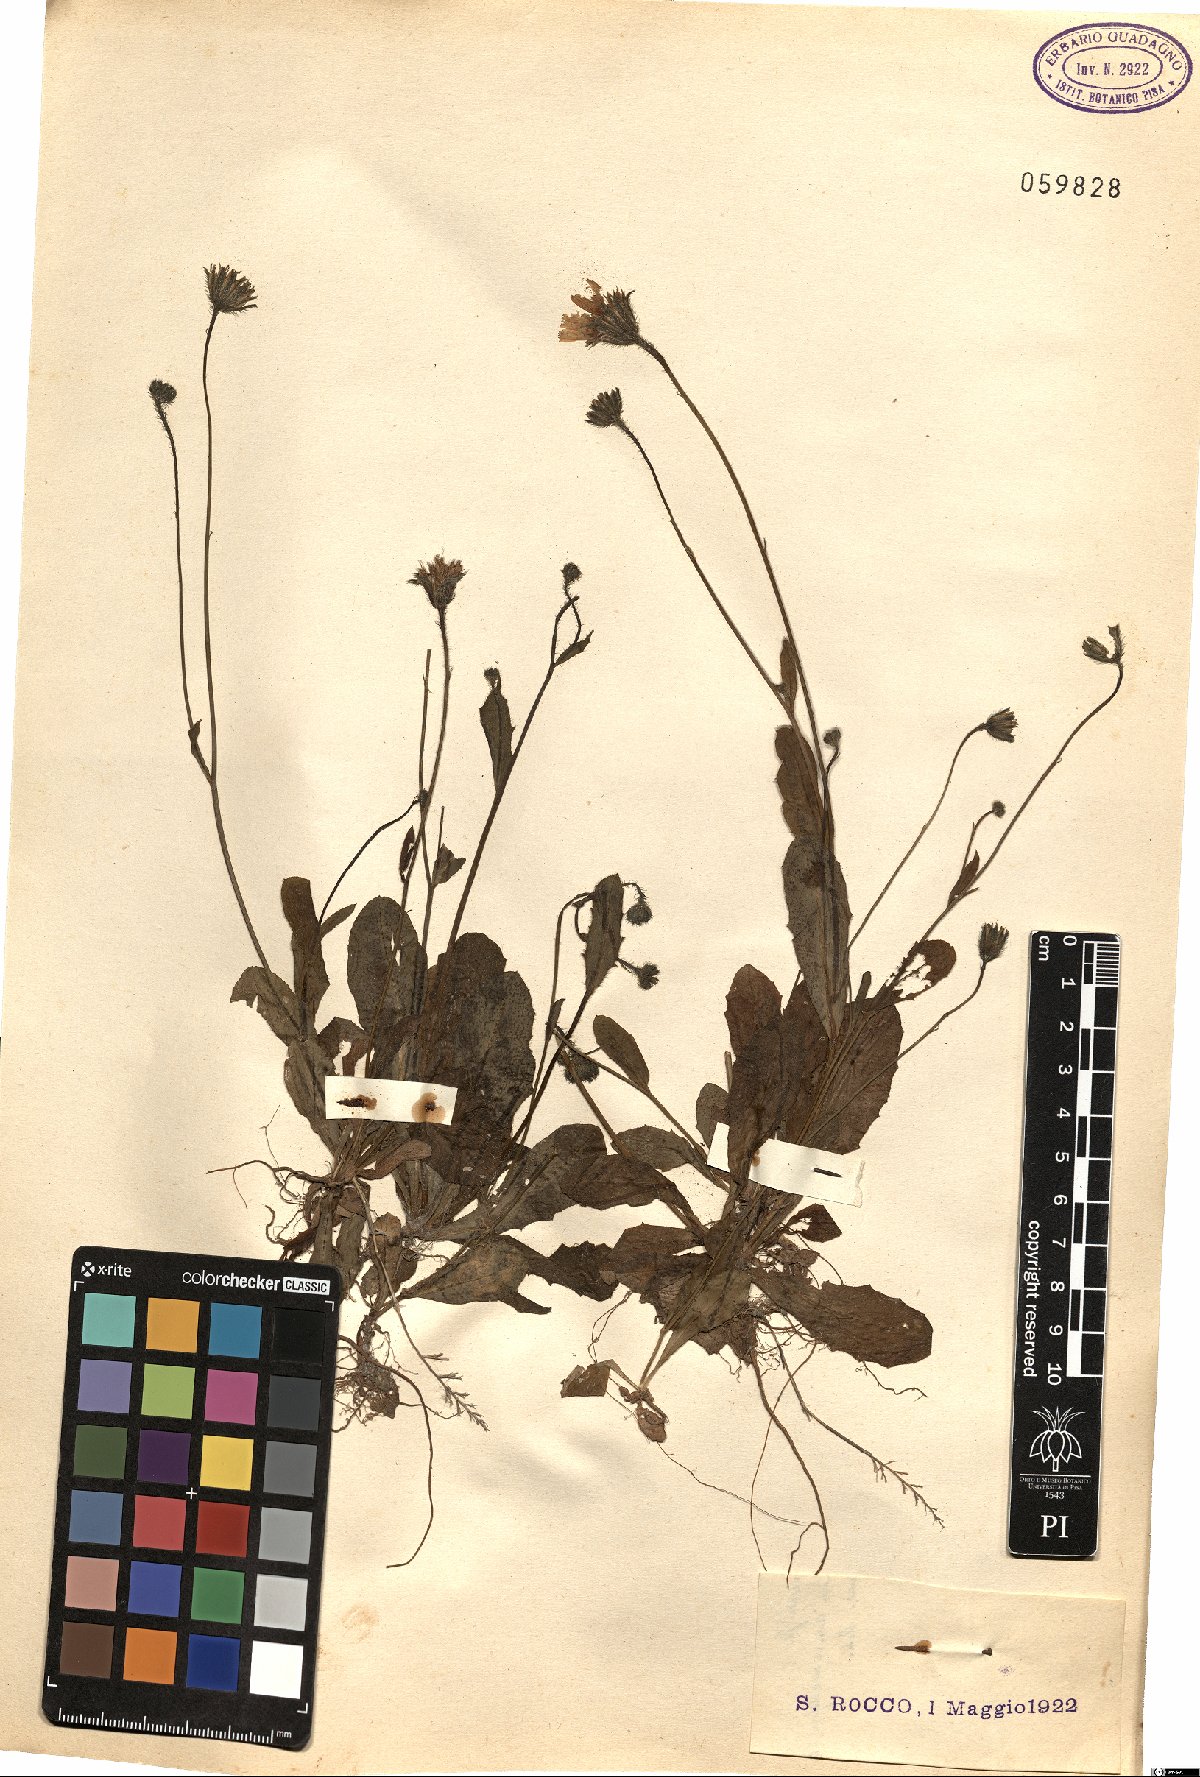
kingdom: Plantae
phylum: Tracheophyta
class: Magnoliopsida
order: Asterales
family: Asteraceae
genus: Crepis
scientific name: Crepis
